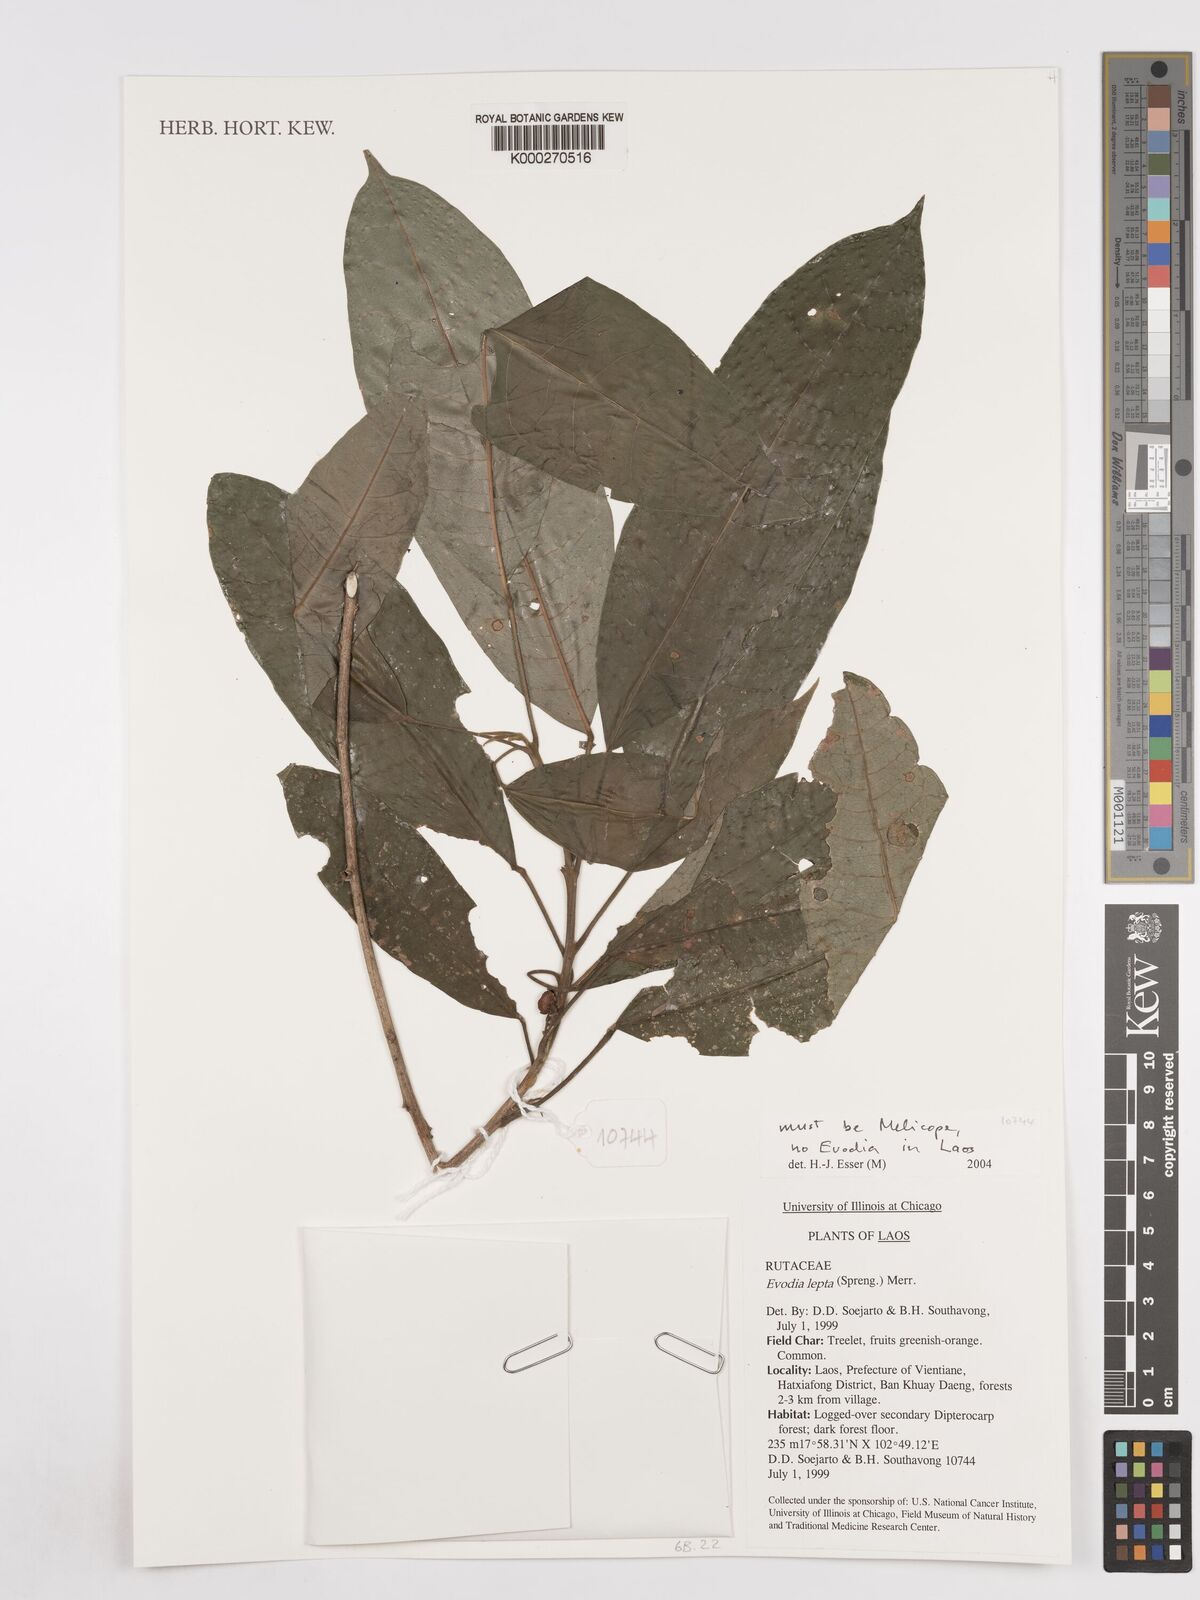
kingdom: Plantae
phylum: Tracheophyta
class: Magnoliopsida
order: Sapindales
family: Rutaceae
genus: Melicope
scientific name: Melicope
